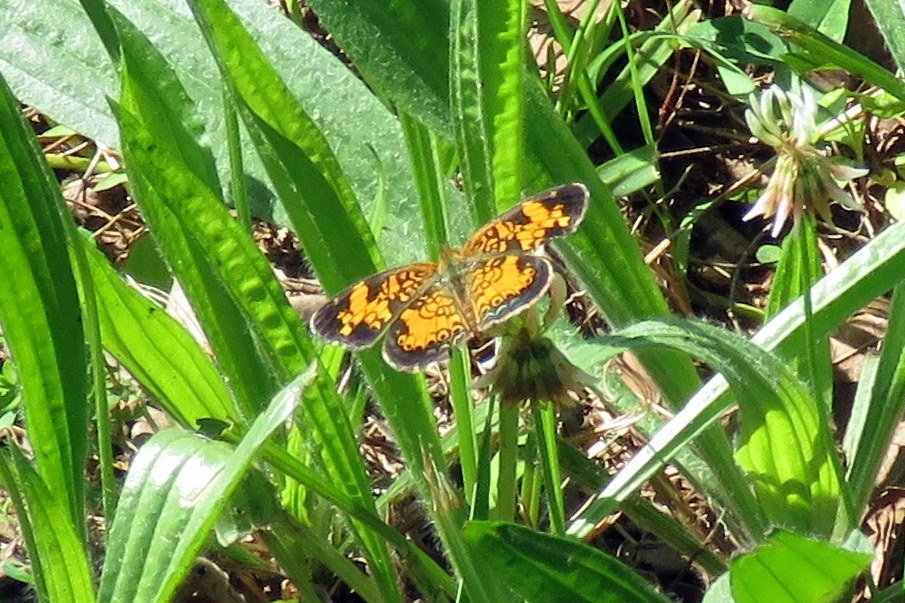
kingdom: Animalia
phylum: Arthropoda
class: Insecta
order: Lepidoptera
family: Nymphalidae
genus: Phyciodes
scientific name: Phyciodes tharos
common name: Pearl Crescent
